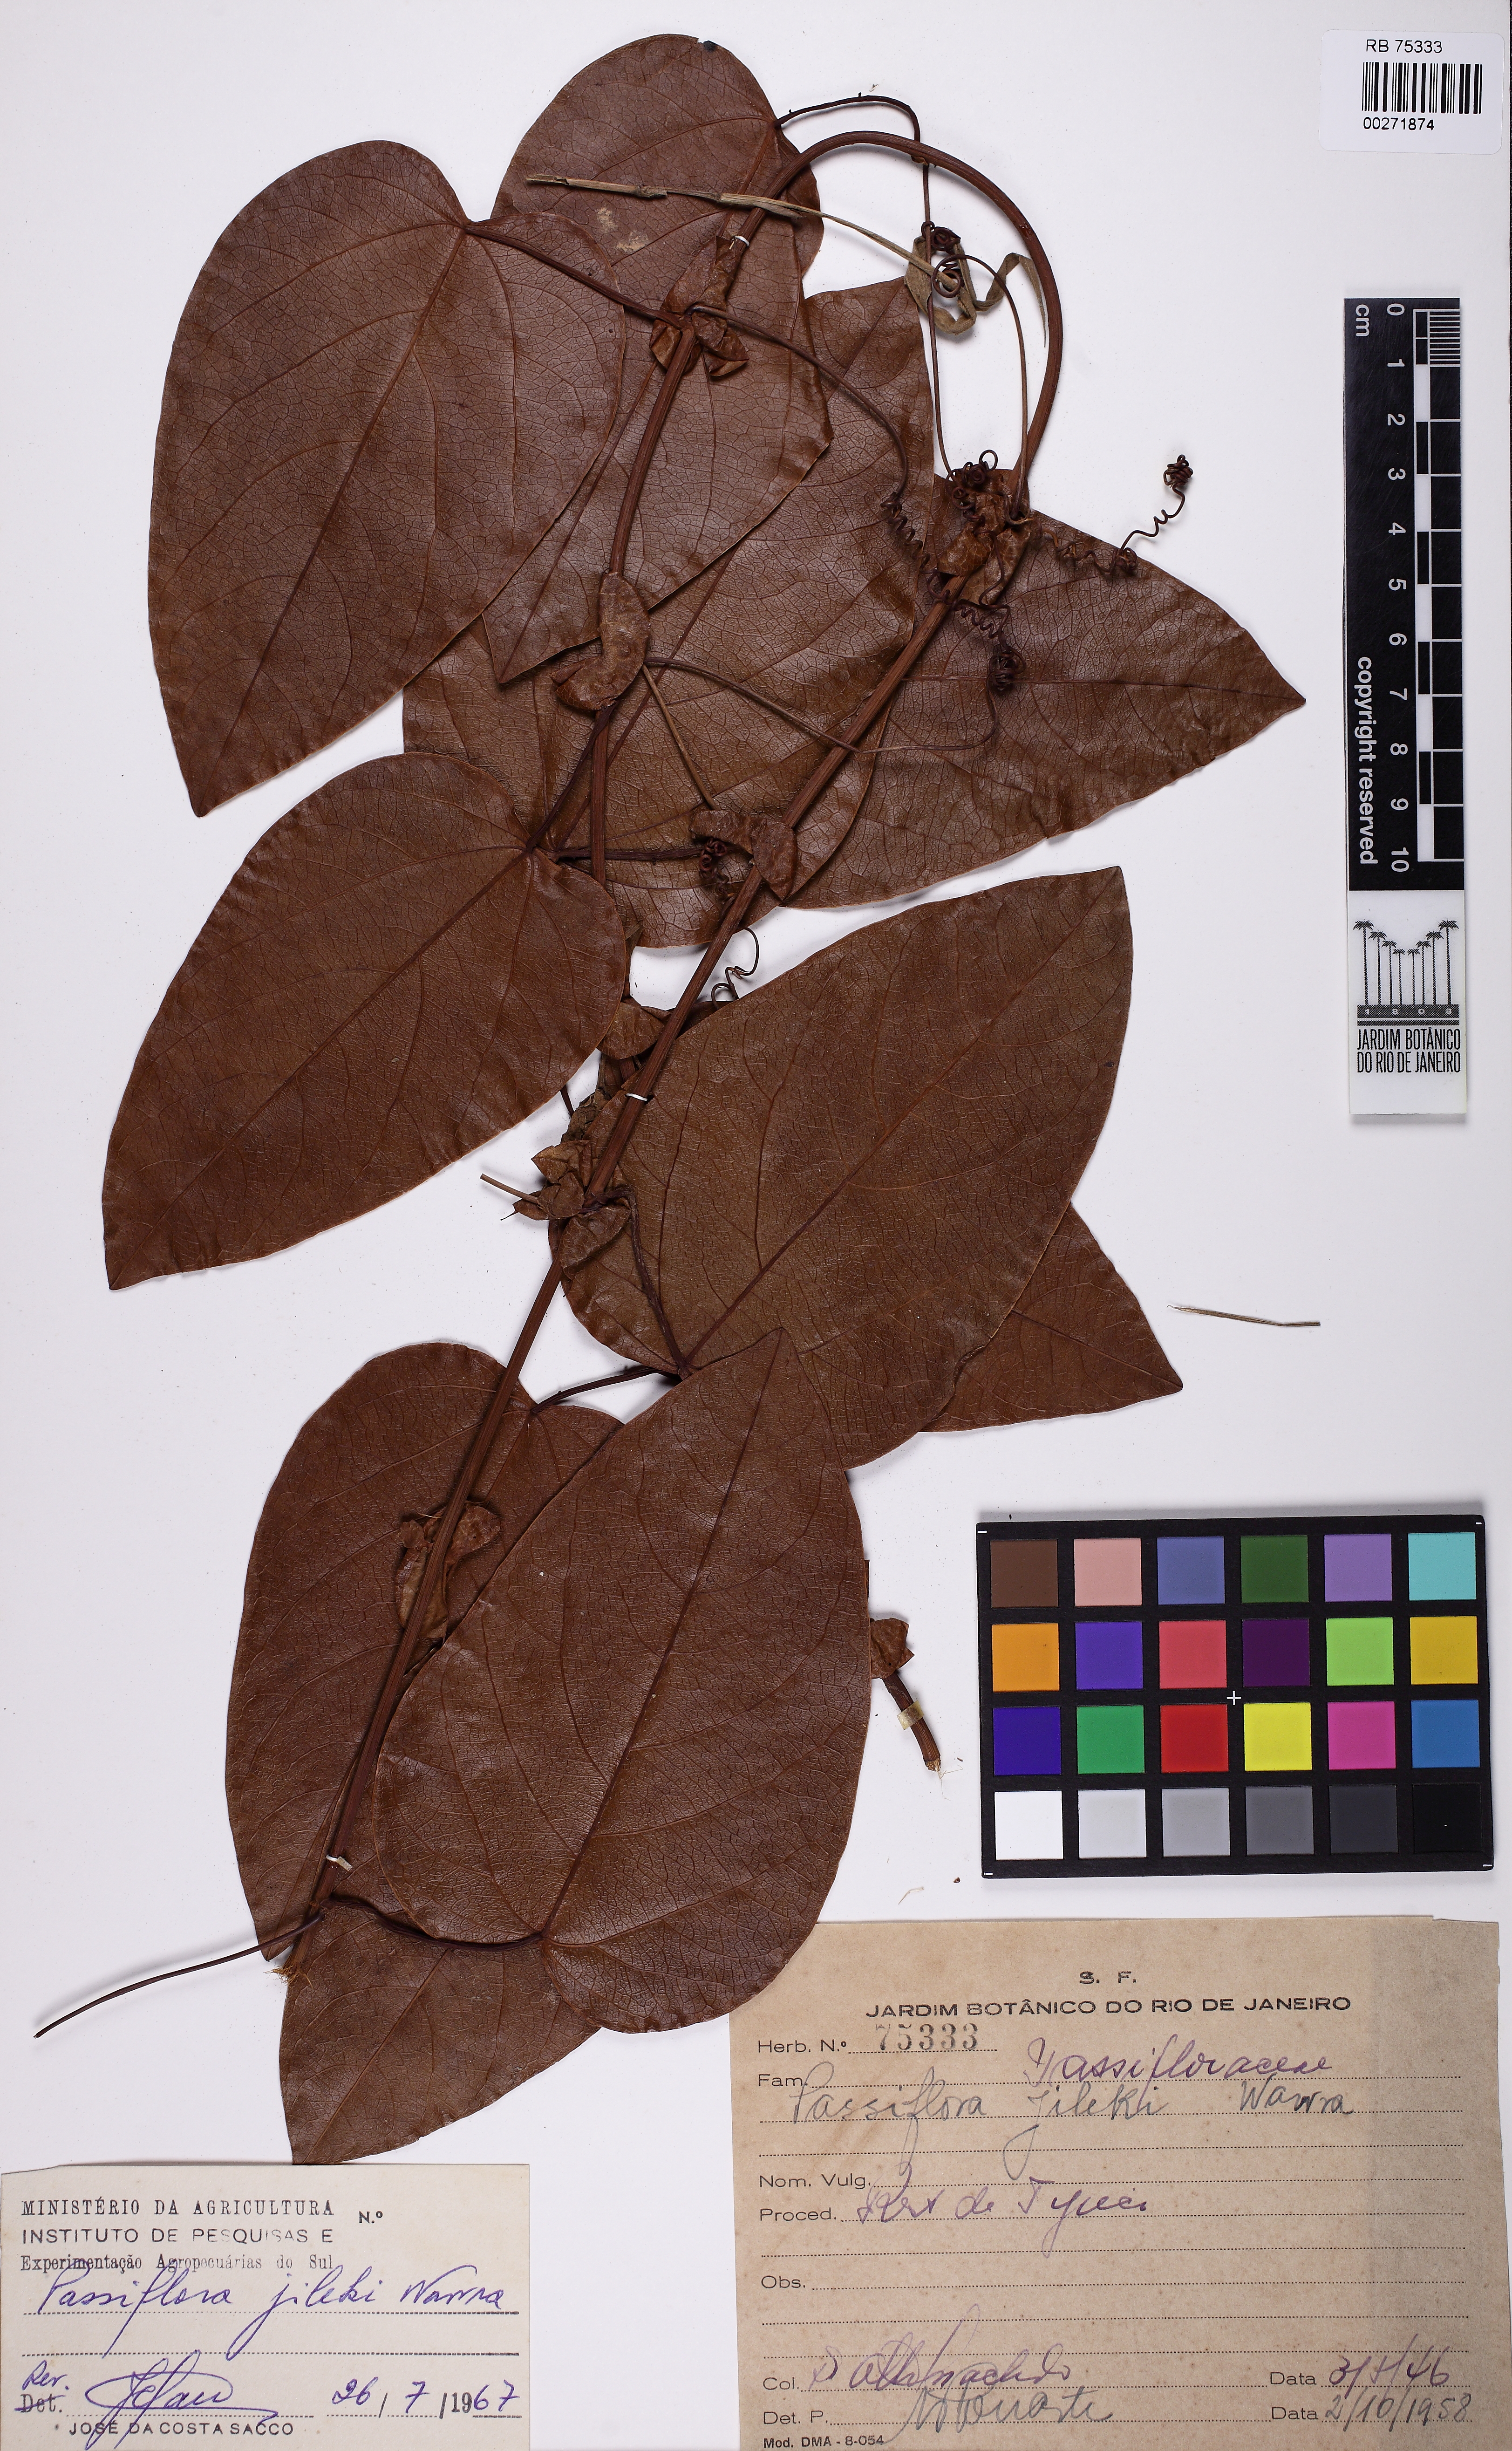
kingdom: Plantae
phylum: Tracheophyta
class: Magnoliopsida
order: Malpighiales
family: Passifloraceae
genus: Passiflora
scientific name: Passiflora mediterranea
